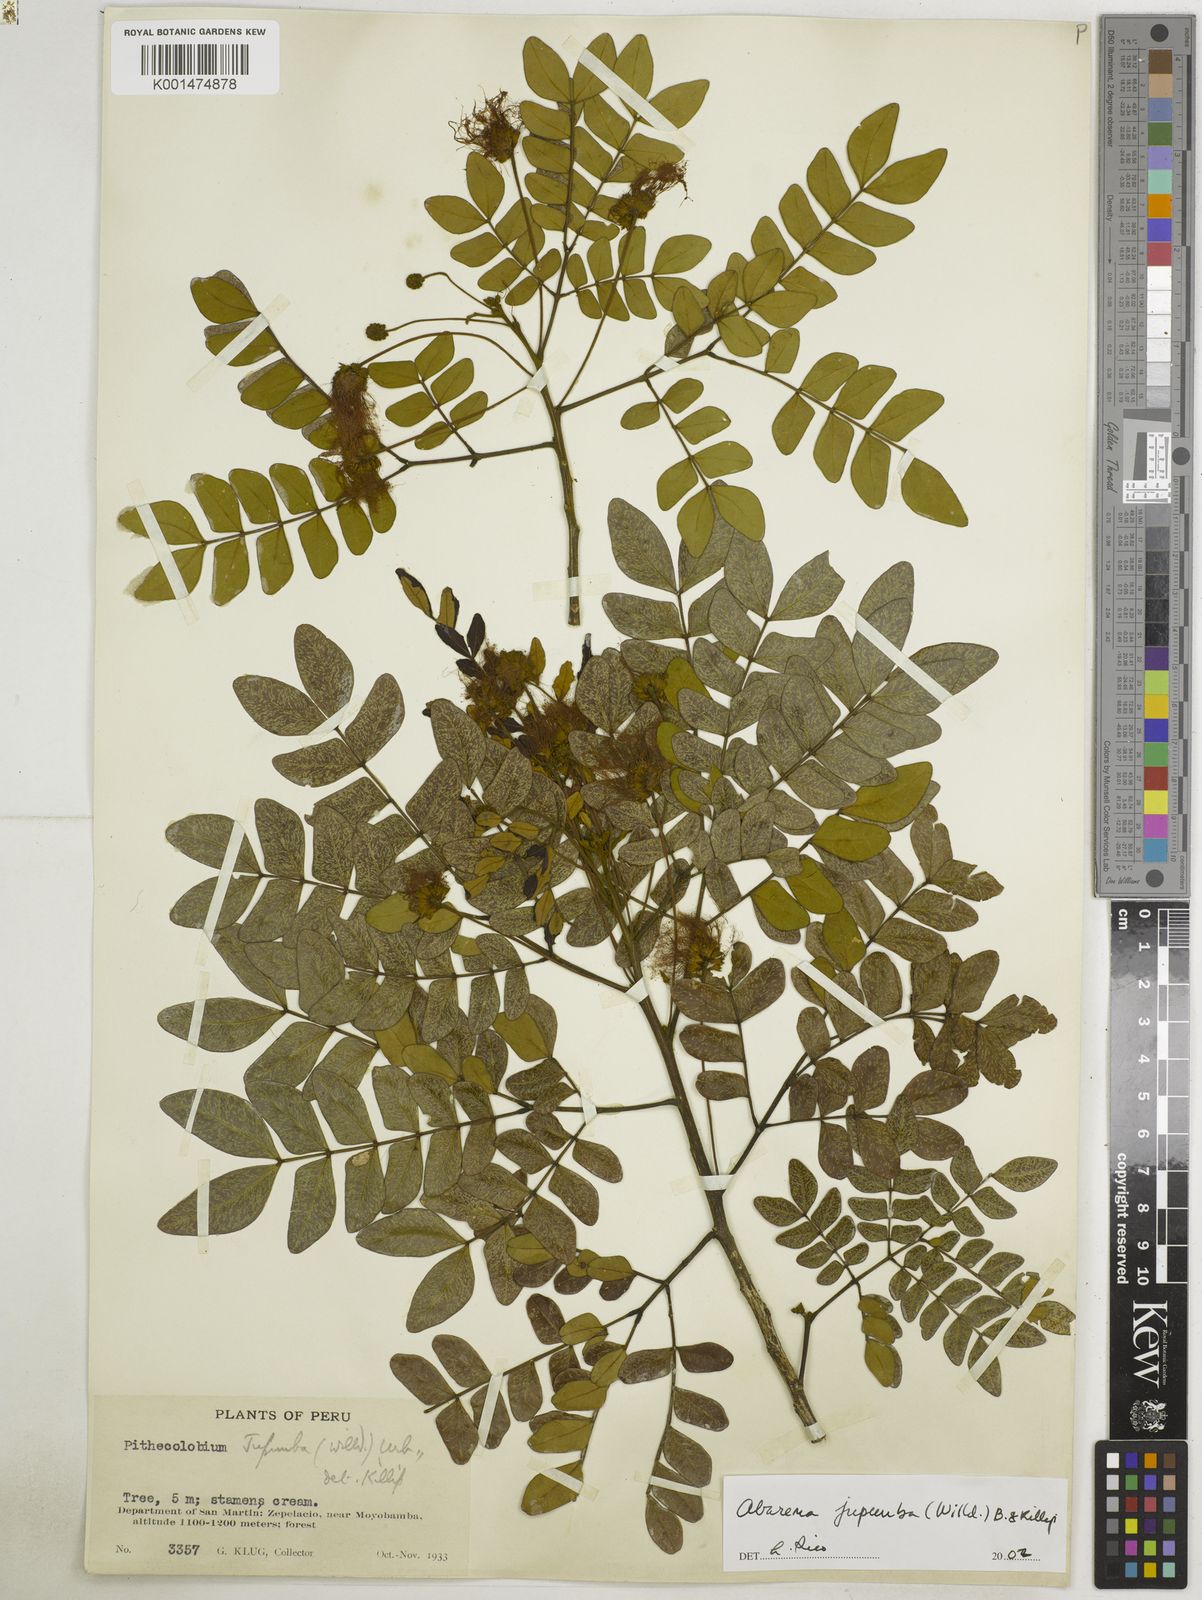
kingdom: Plantae
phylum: Tracheophyta
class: Magnoliopsida
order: Fabales
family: Fabaceae
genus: Jupunba
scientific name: Jupunba trapezifolia
